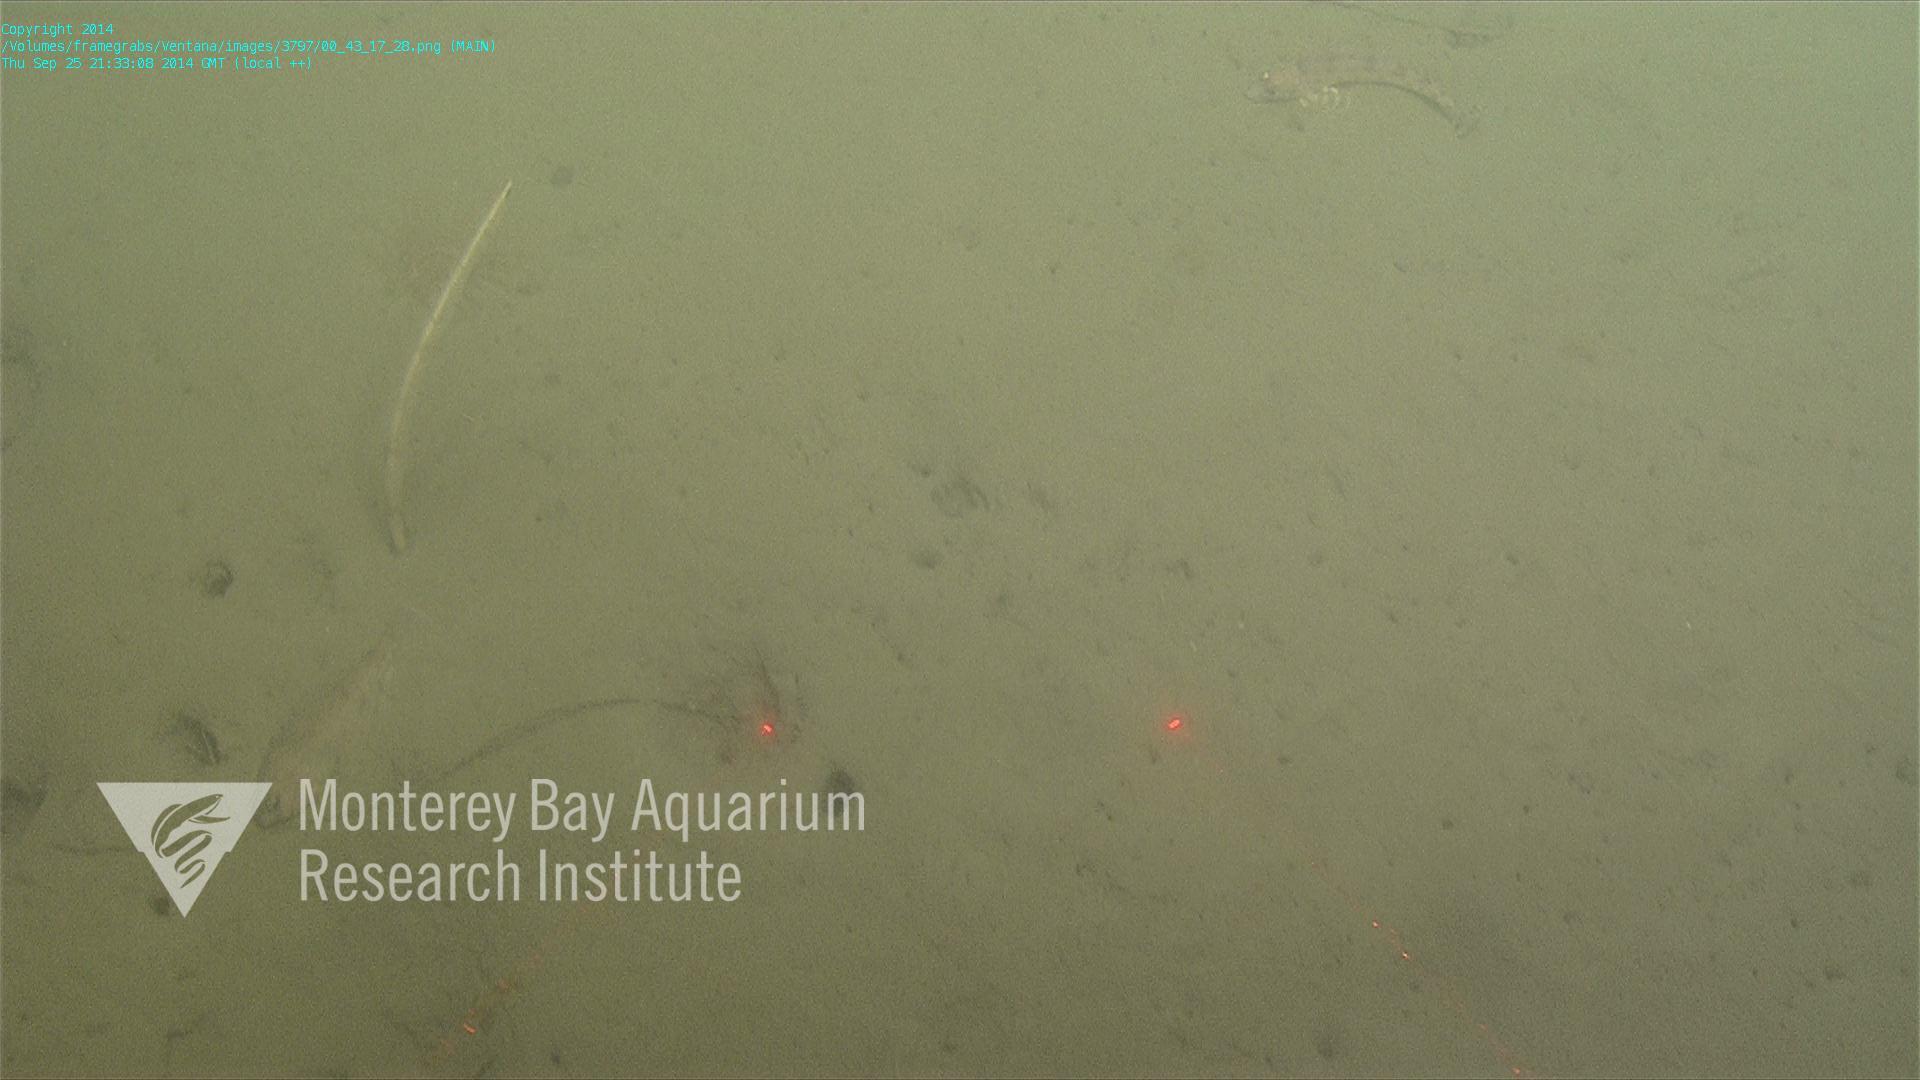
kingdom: Animalia
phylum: Cnidaria
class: Anthozoa
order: Scleralcyonacea
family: Virgulariidae
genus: Acanthoptilum
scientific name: Acanthoptilum
